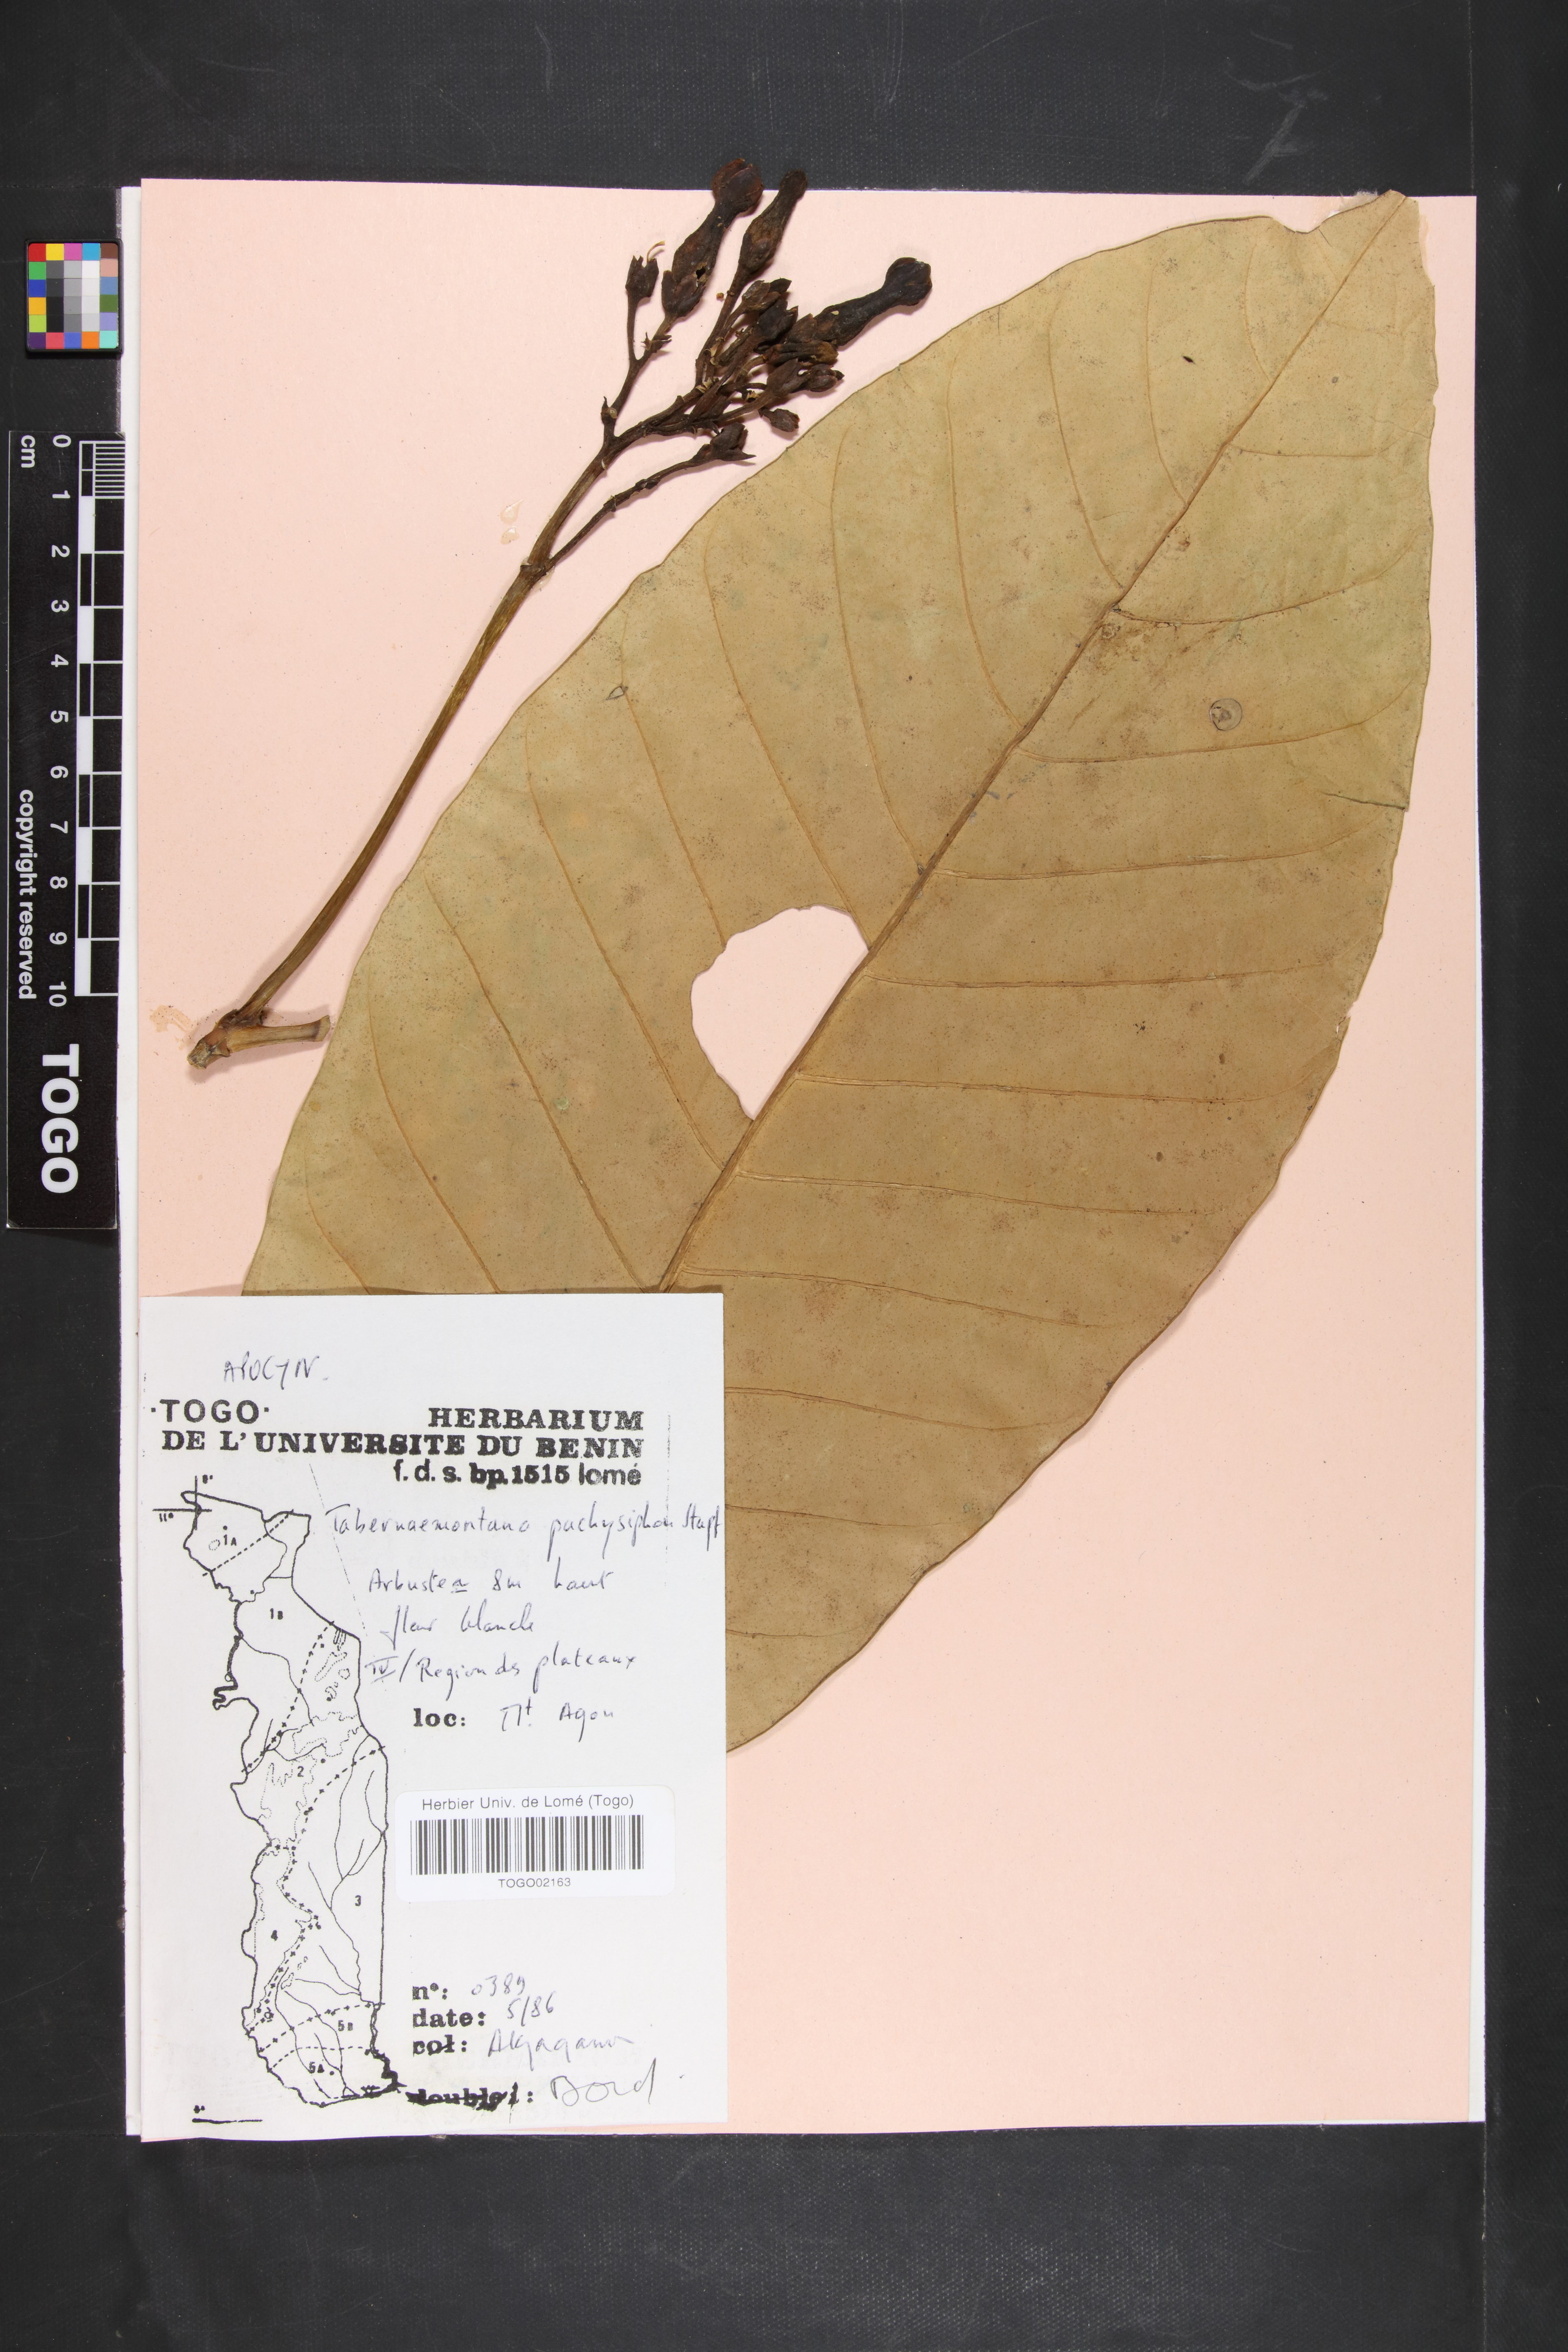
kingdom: Plantae
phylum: Tracheophyta
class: Magnoliopsida
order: Gentianales
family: Apocynaceae
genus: Tabernaemontana
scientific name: Tabernaemontana pachysiphon
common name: Giant pinwheel-flower
